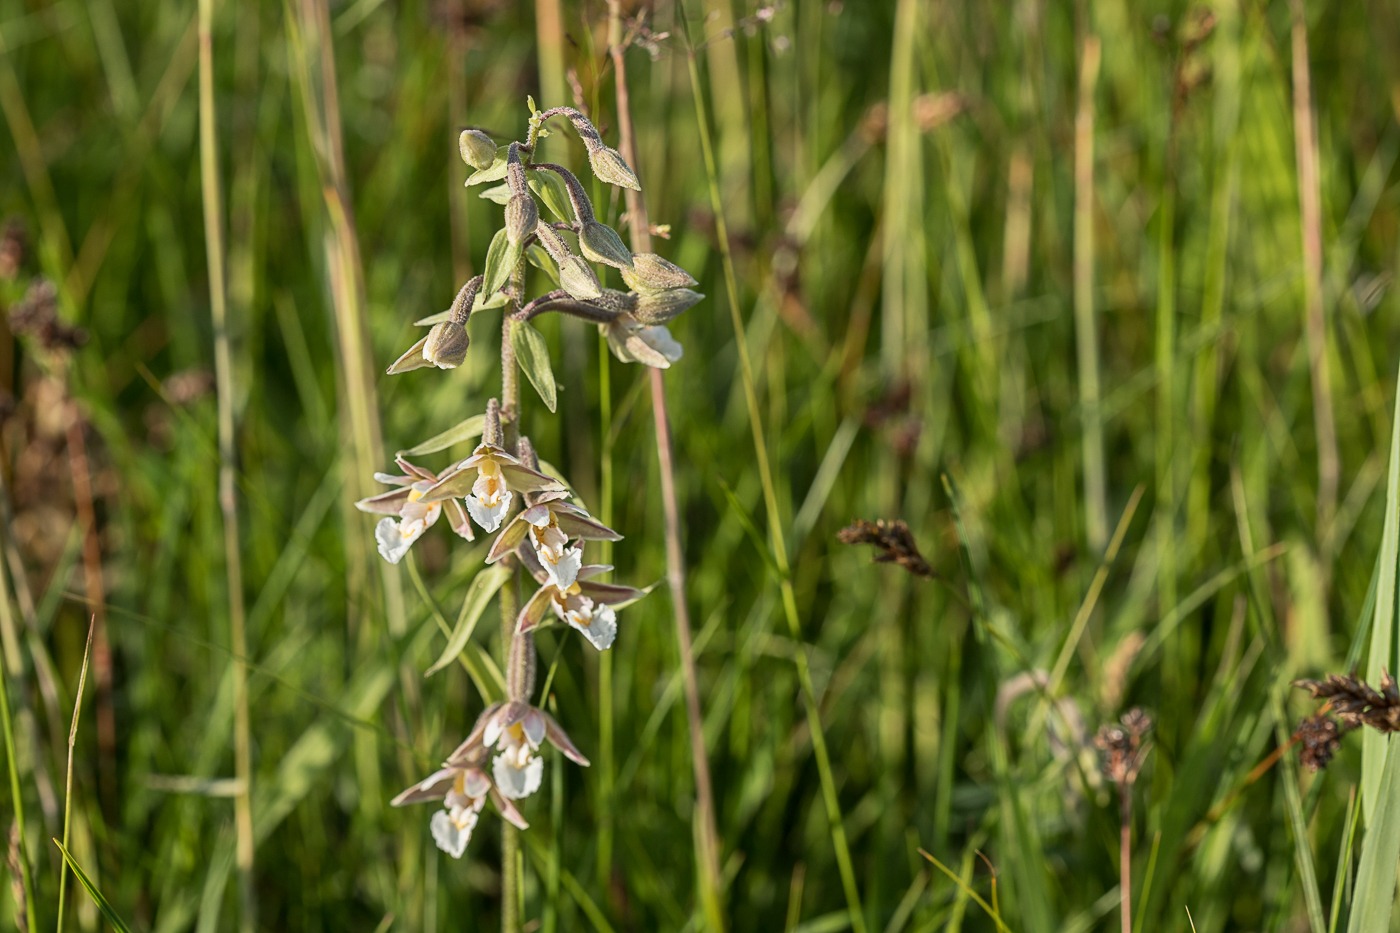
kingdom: Plantae
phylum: Tracheophyta
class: Liliopsida
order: Asparagales
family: Orchidaceae
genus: Epipactis
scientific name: Epipactis palustris
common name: Sump-hullæbe
